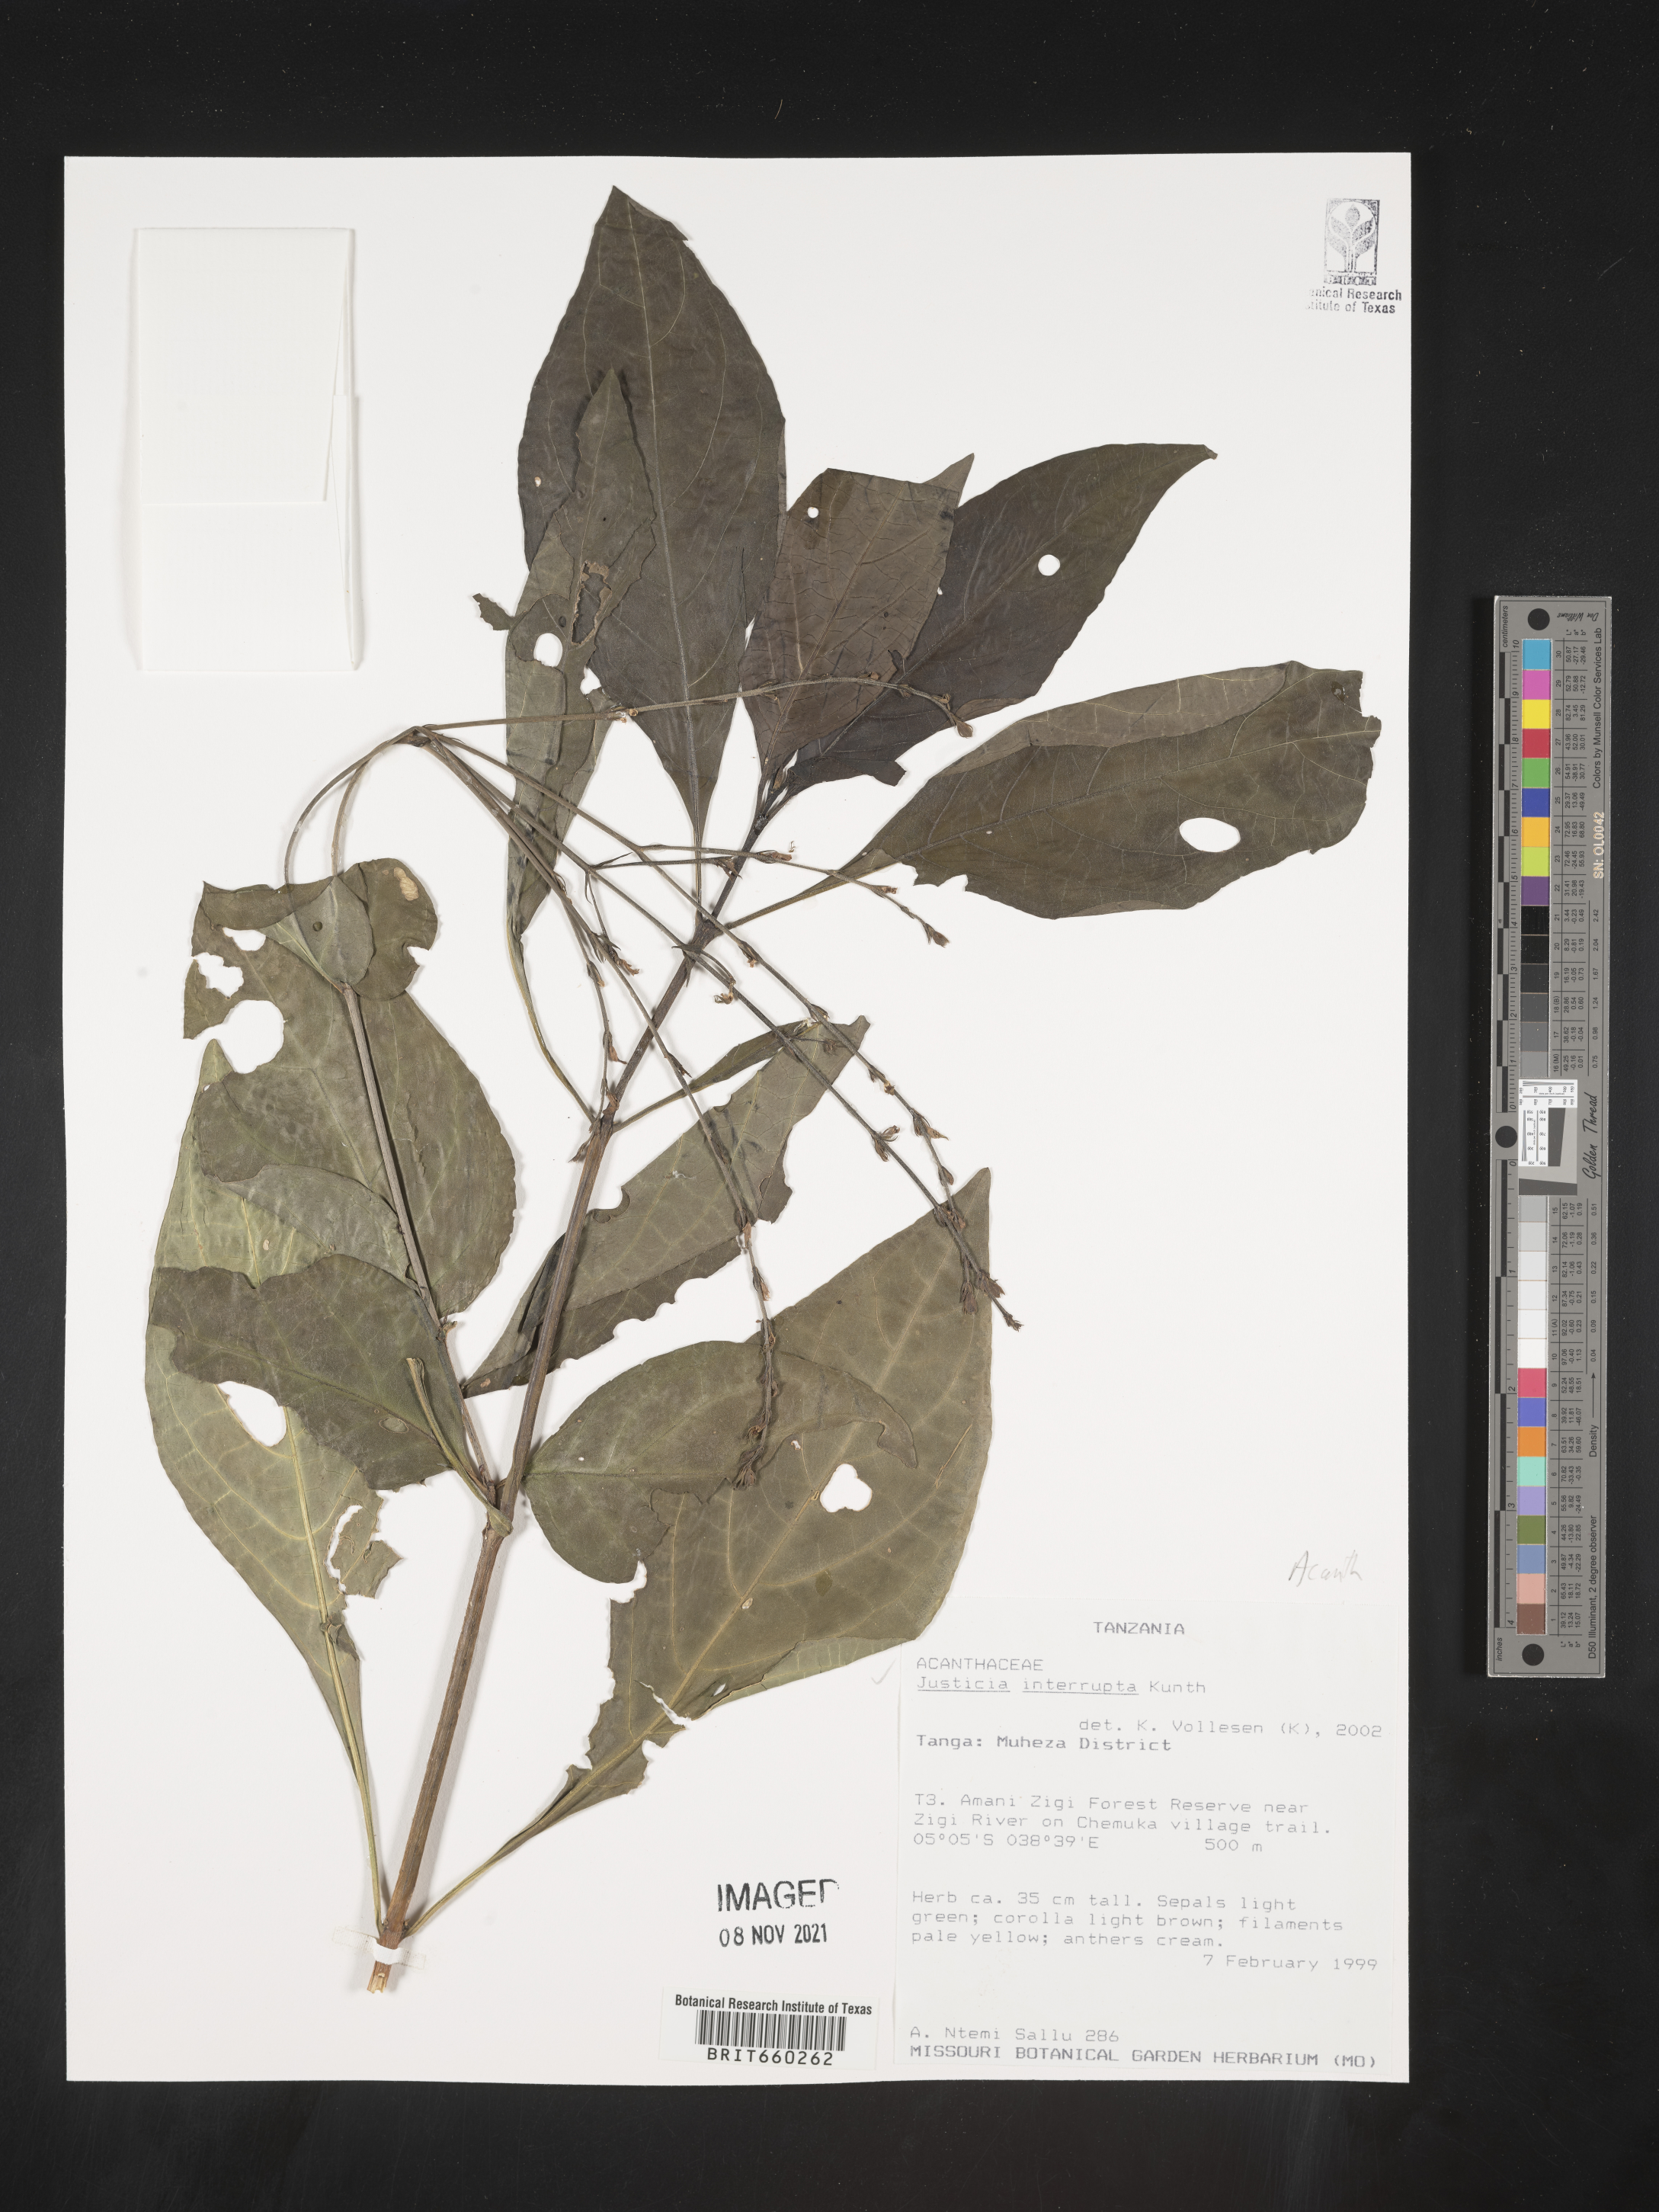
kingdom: Plantae
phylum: Tracheophyta
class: Magnoliopsida
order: Lamiales
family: Acanthaceae
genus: Justicia
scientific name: Justicia
